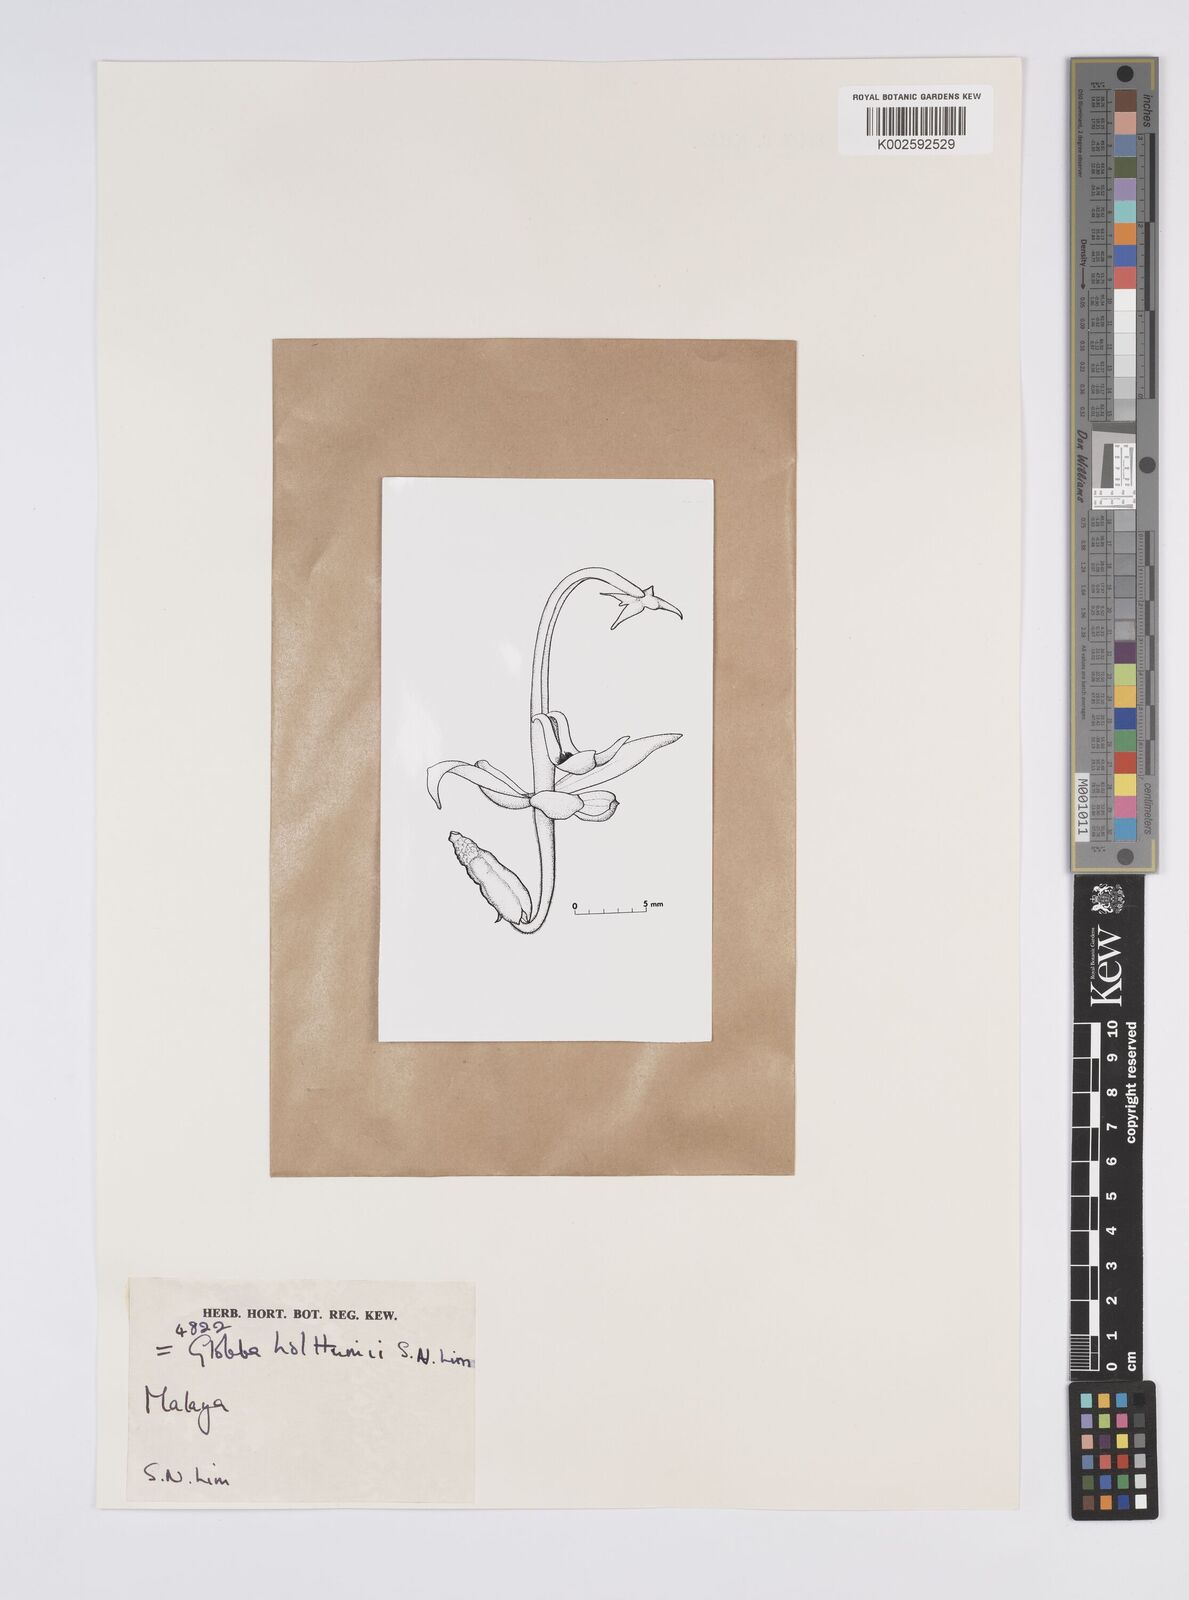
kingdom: Plantae
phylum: Tracheophyta
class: Liliopsida
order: Zingiberales
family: Zingiberaceae
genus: Globba
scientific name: Globba holttumii
